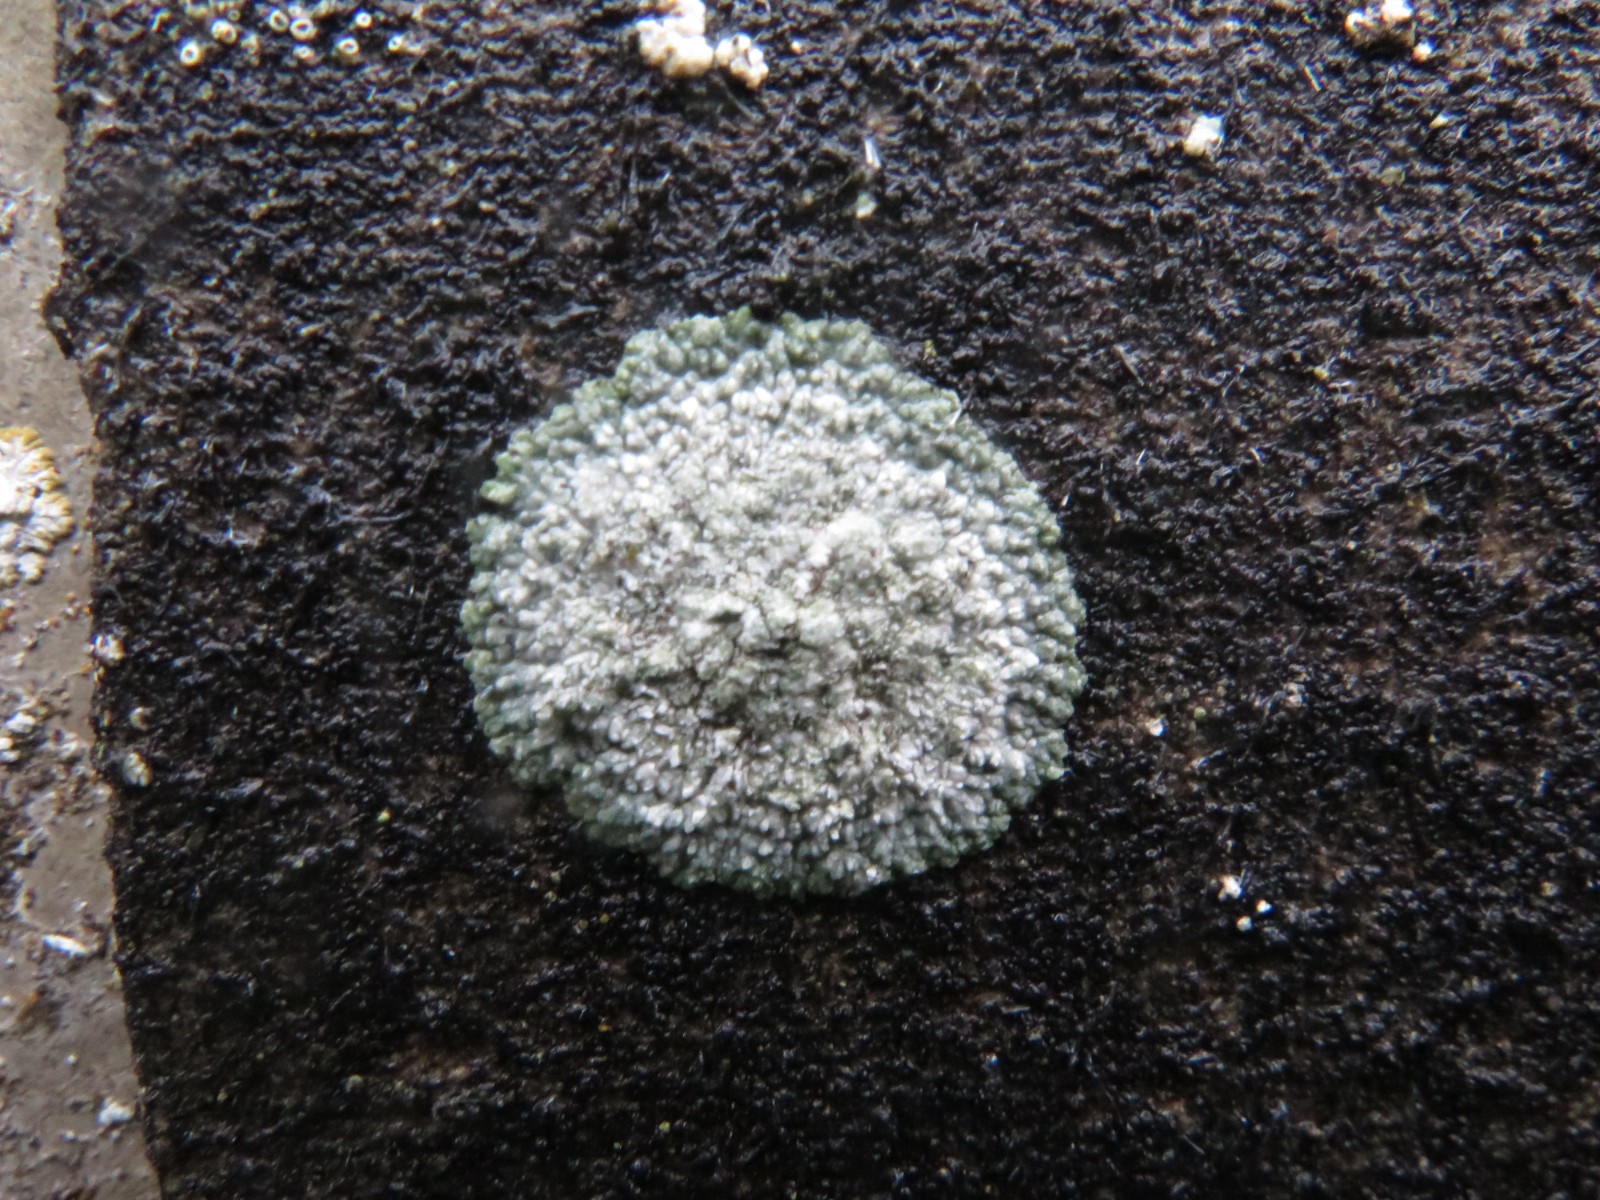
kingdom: Fungi
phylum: Ascomycota
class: Lecanoromycetes
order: Teloschistales
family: Teloschistaceae
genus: Kuettlingeria
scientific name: Kuettlingeria teicholyta
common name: grå orangelav
